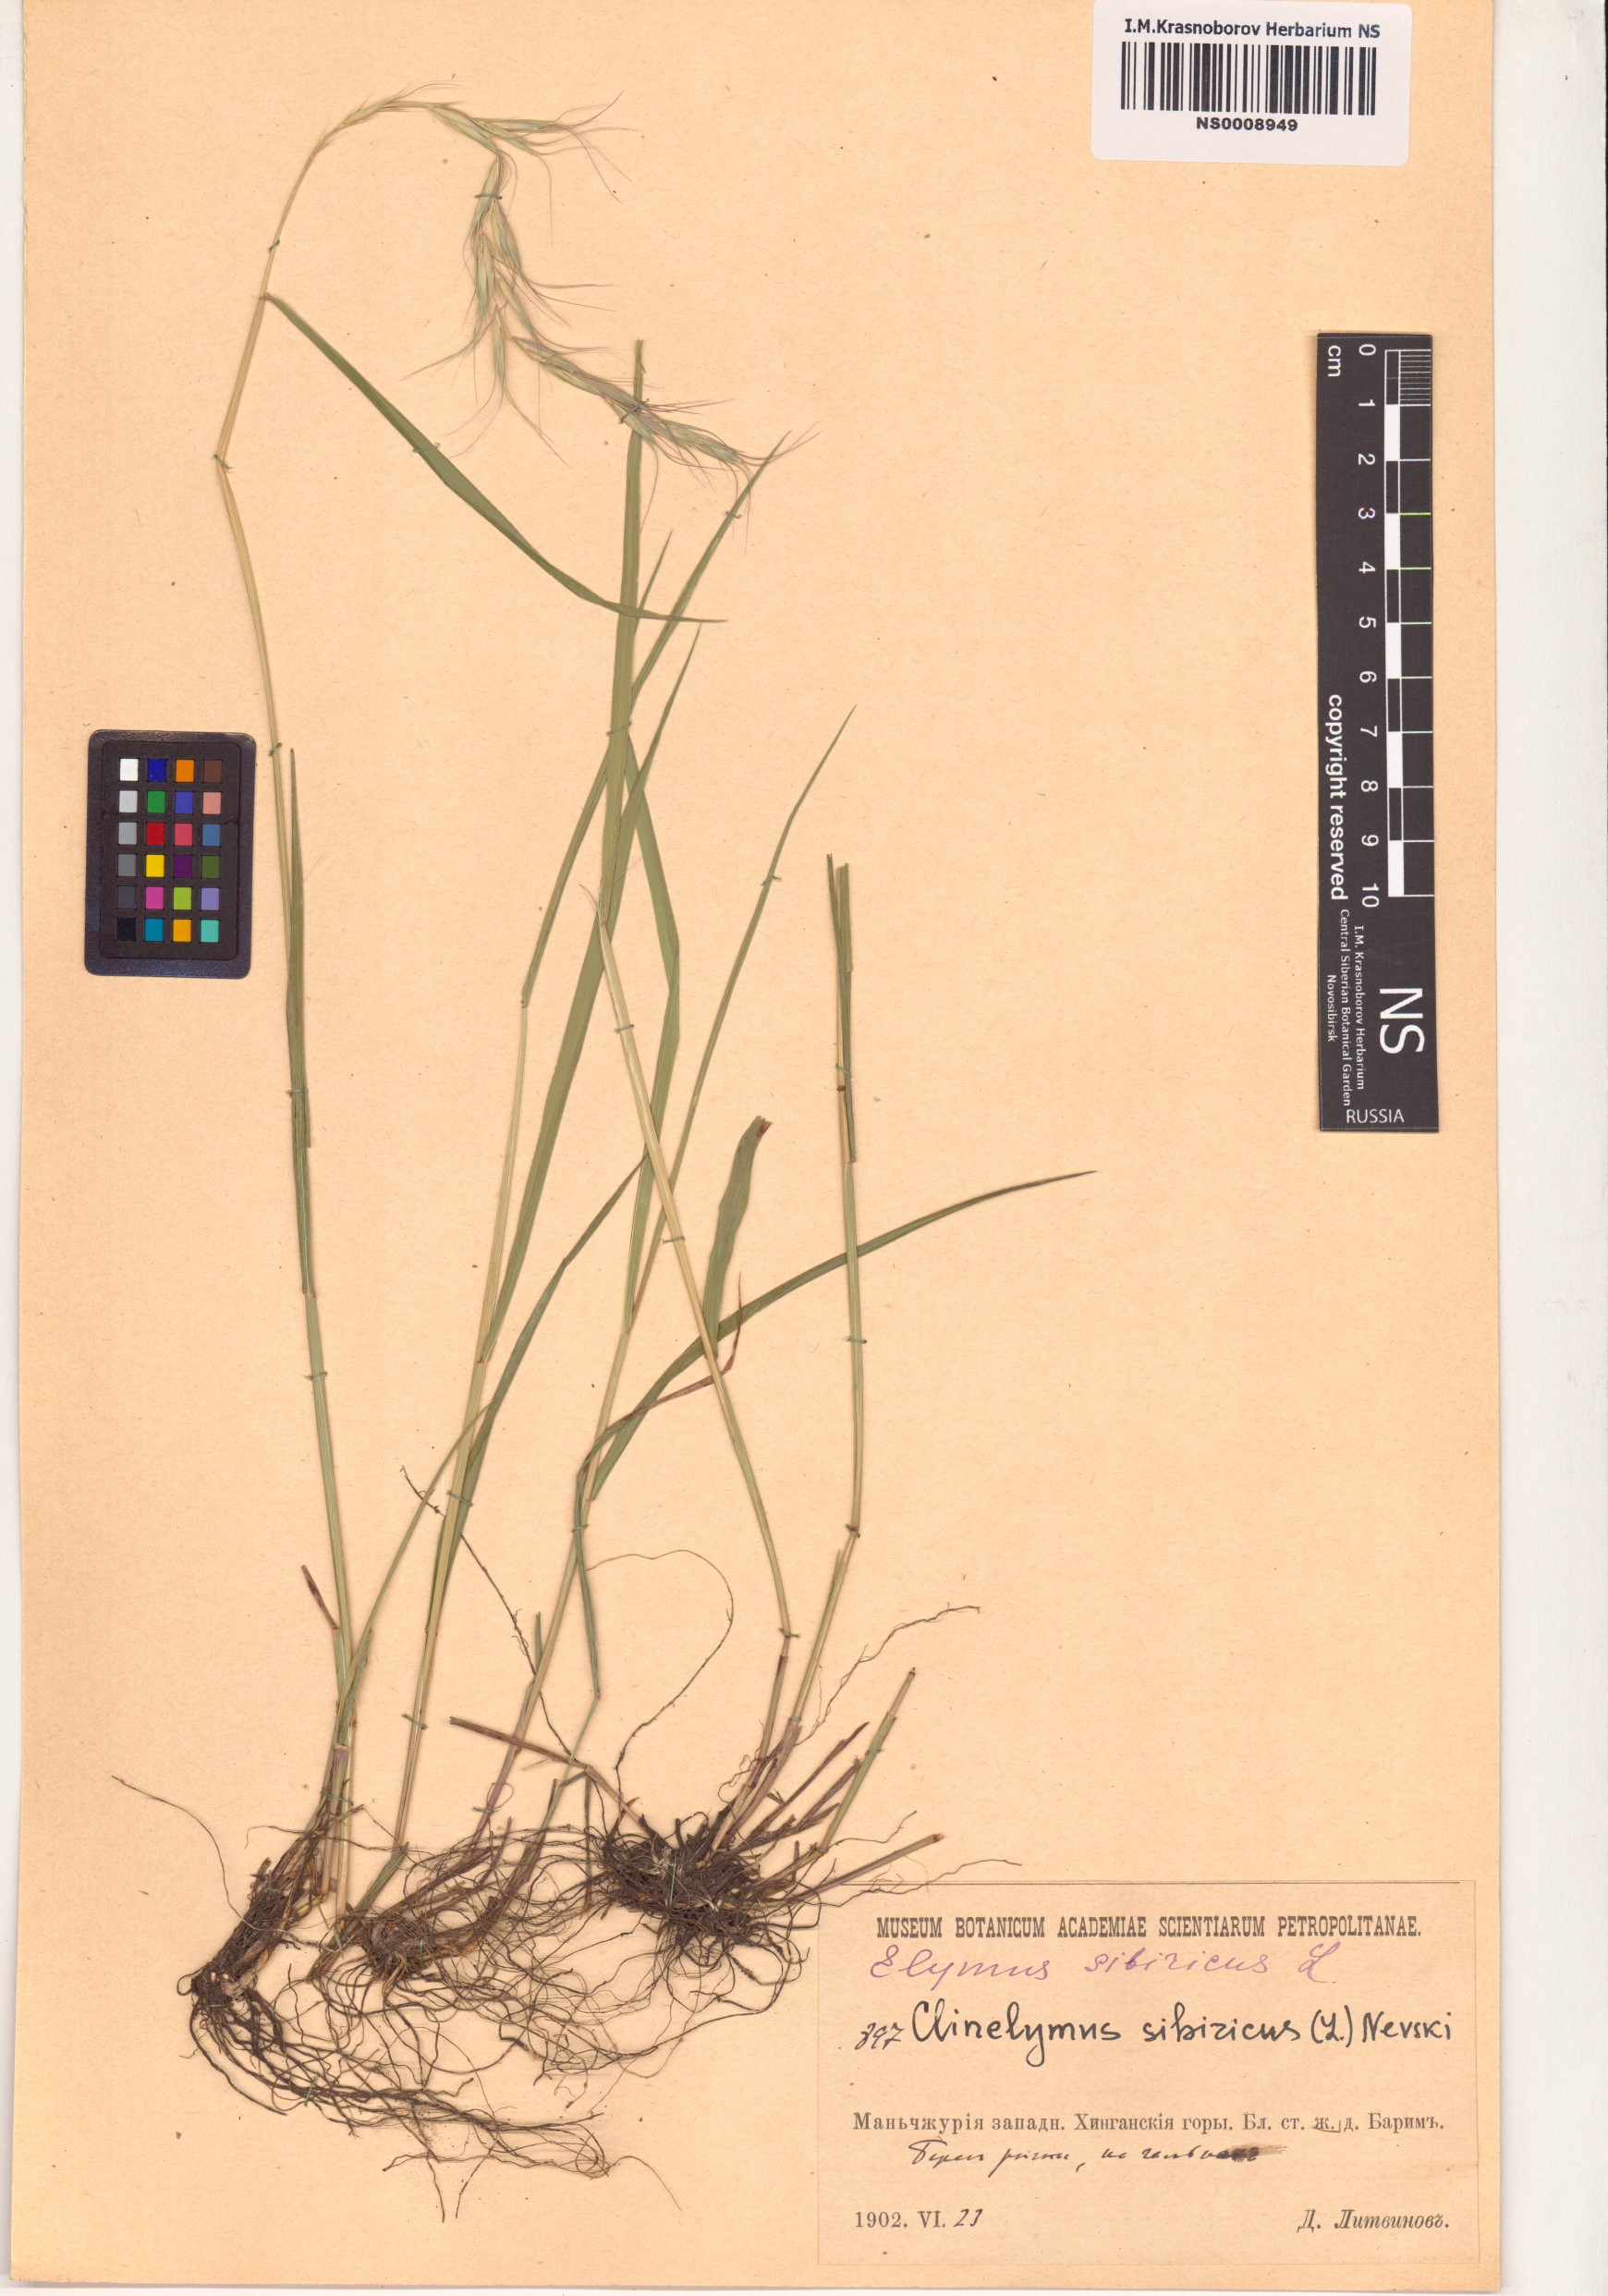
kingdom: Plantae
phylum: Tracheophyta
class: Liliopsida
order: Poales
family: Poaceae
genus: Elymus
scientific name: Elymus sibiricus
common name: Siberian wildrye
